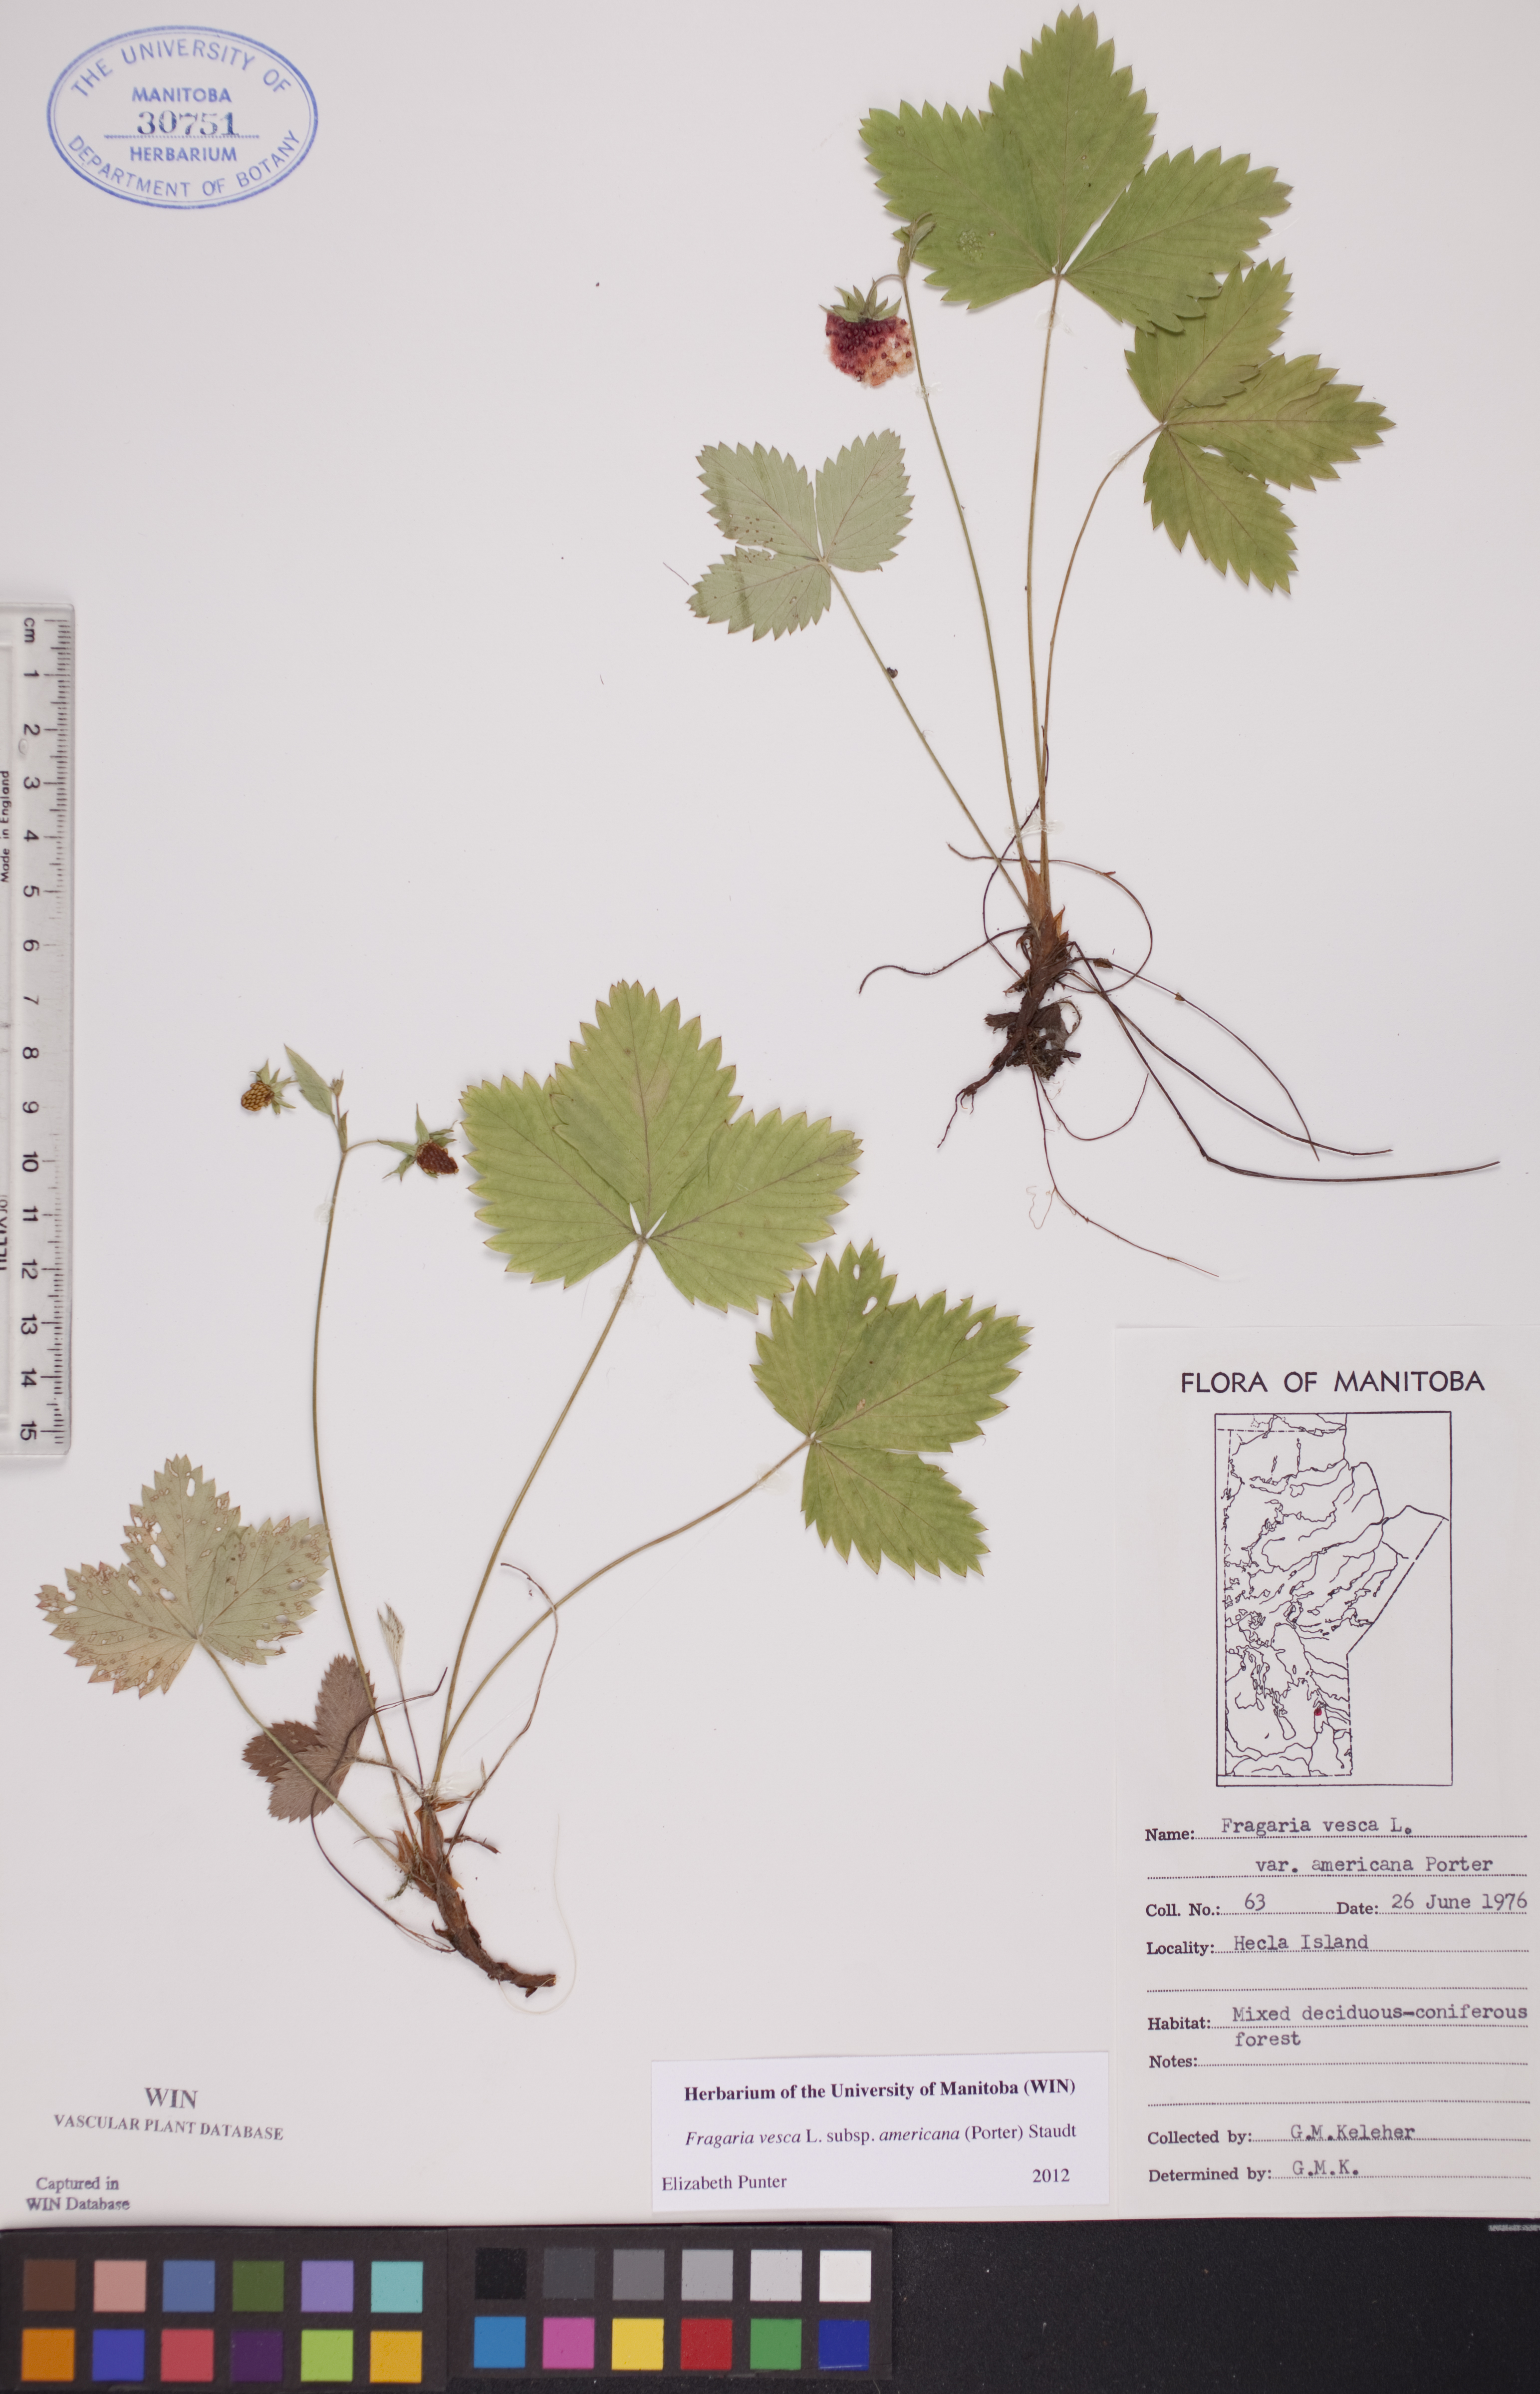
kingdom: Plantae
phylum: Tracheophyta
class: Magnoliopsida
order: Rosales
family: Rosaceae
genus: Fragaria
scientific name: Fragaria vesca
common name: Wild strawberry
